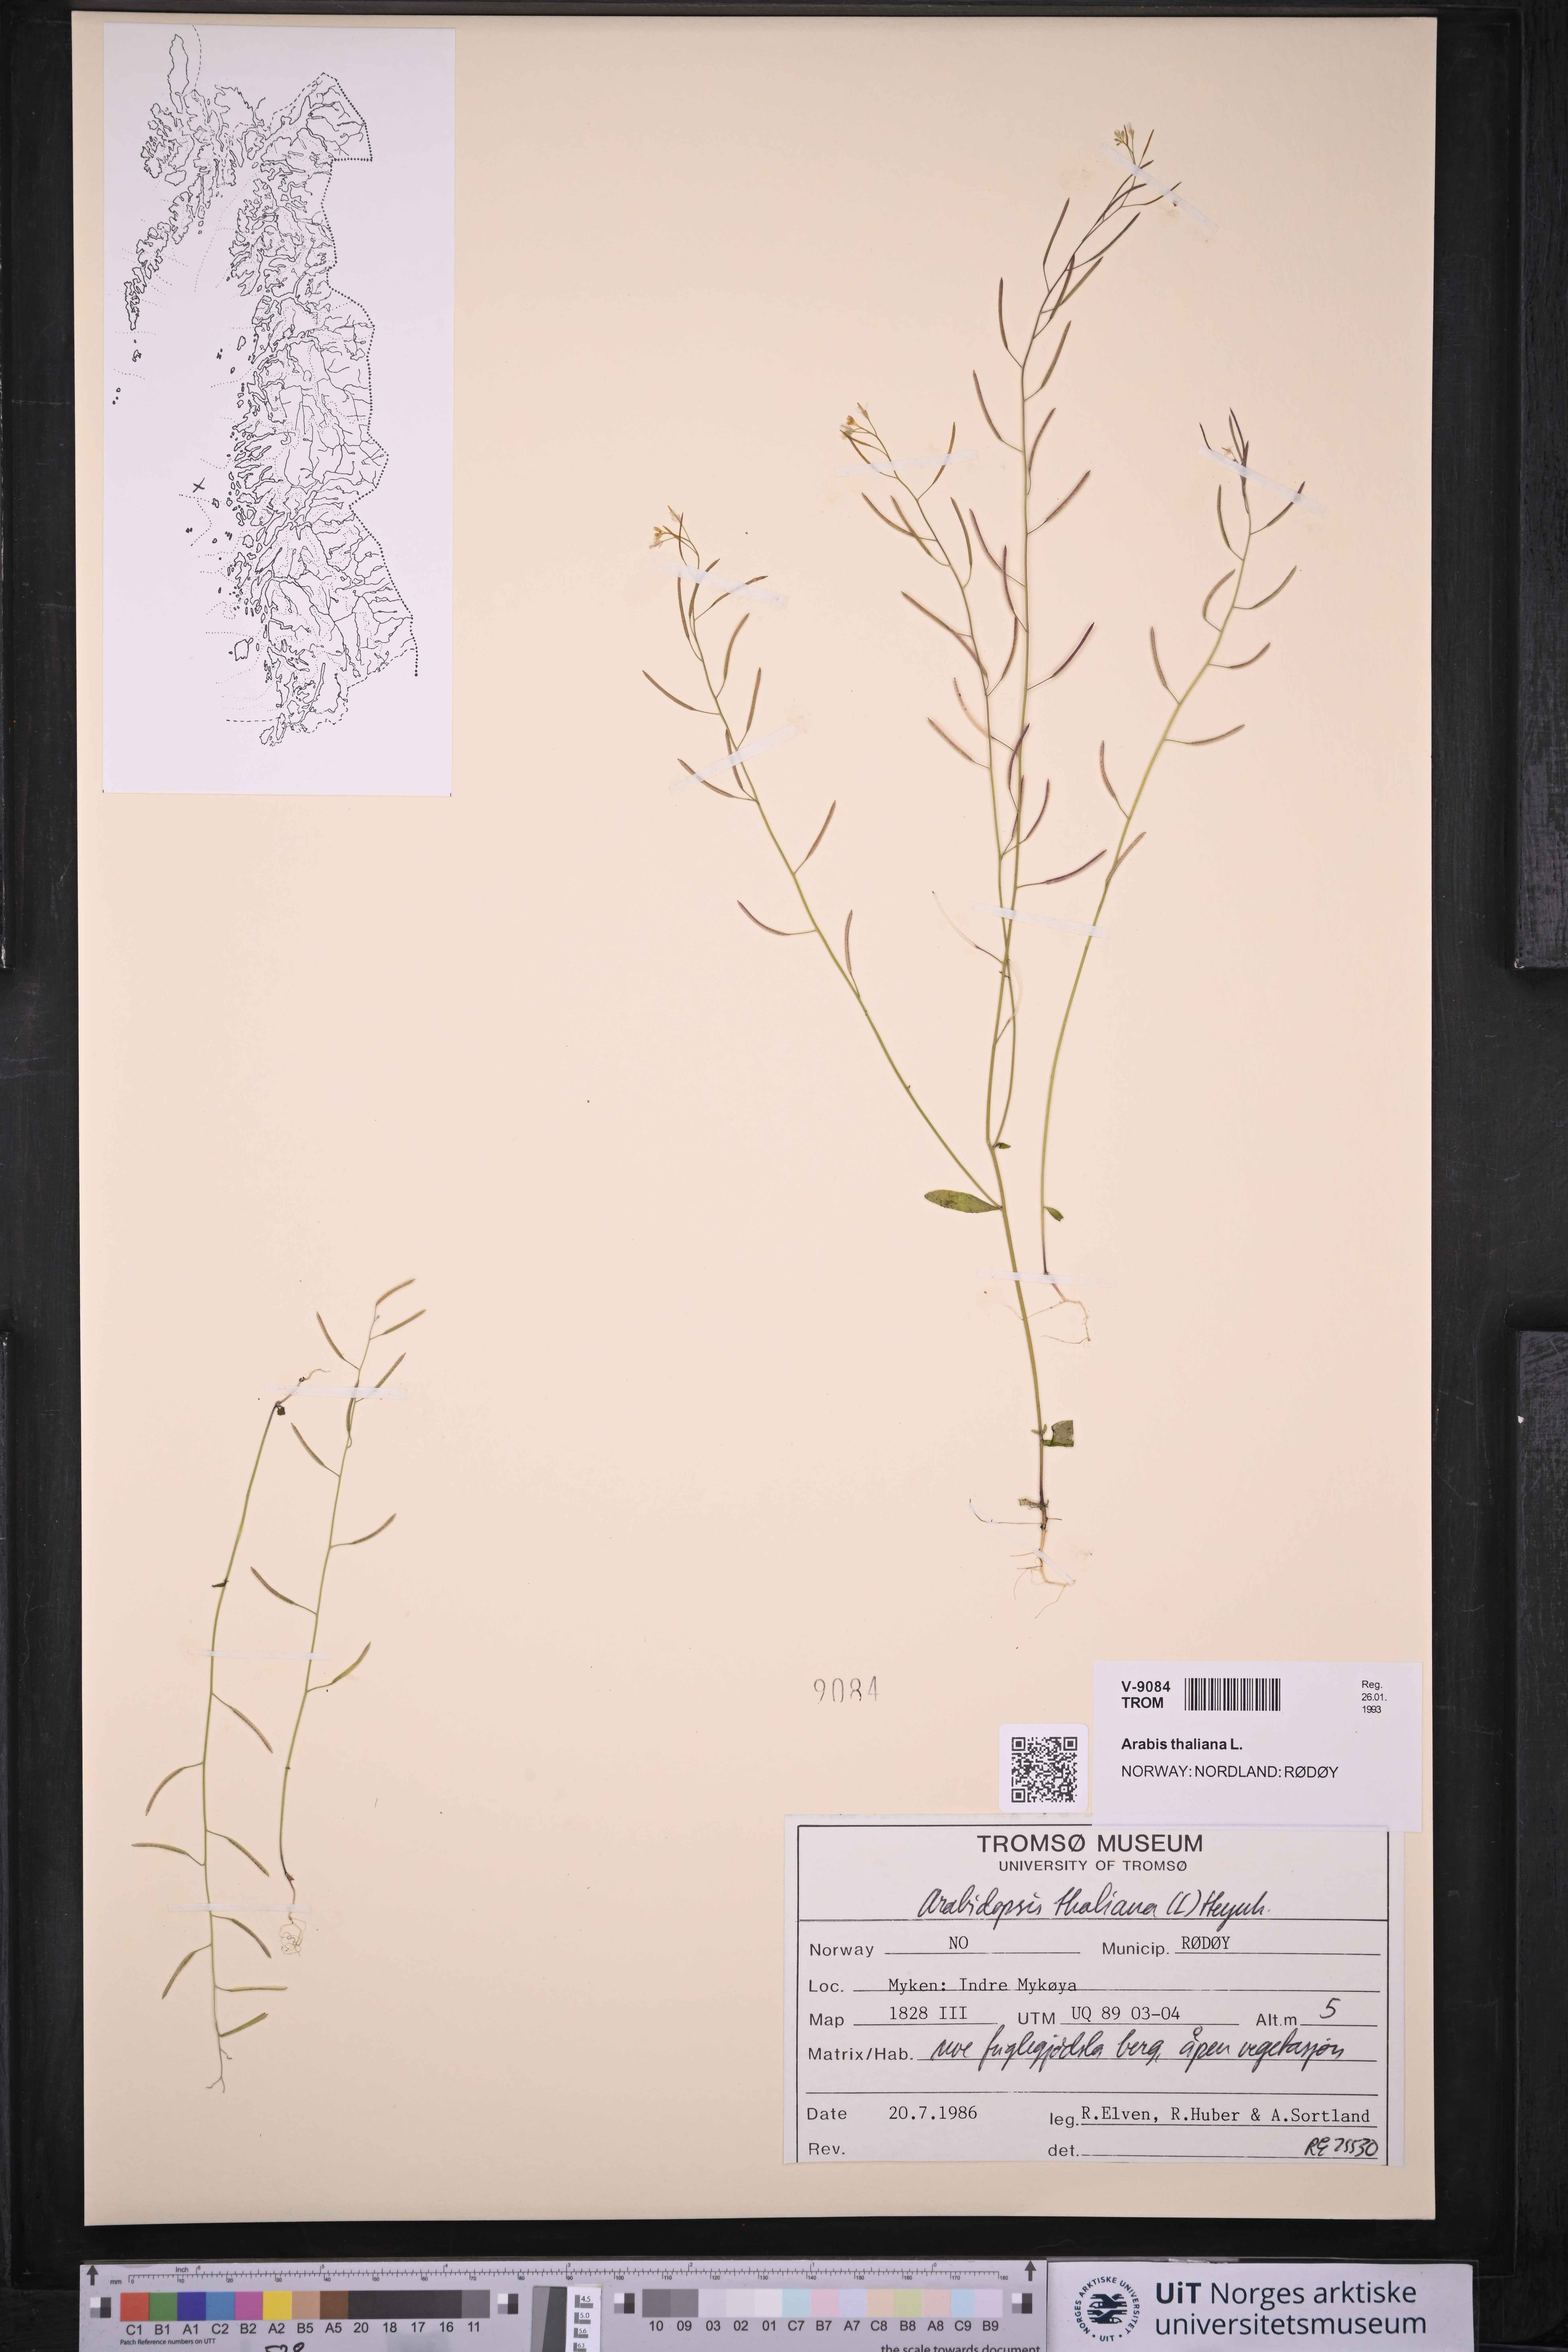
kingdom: Plantae
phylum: Tracheophyta
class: Magnoliopsida
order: Brassicales
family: Brassicaceae
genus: Arabidopsis
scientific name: Arabidopsis thaliana
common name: Thale cress
